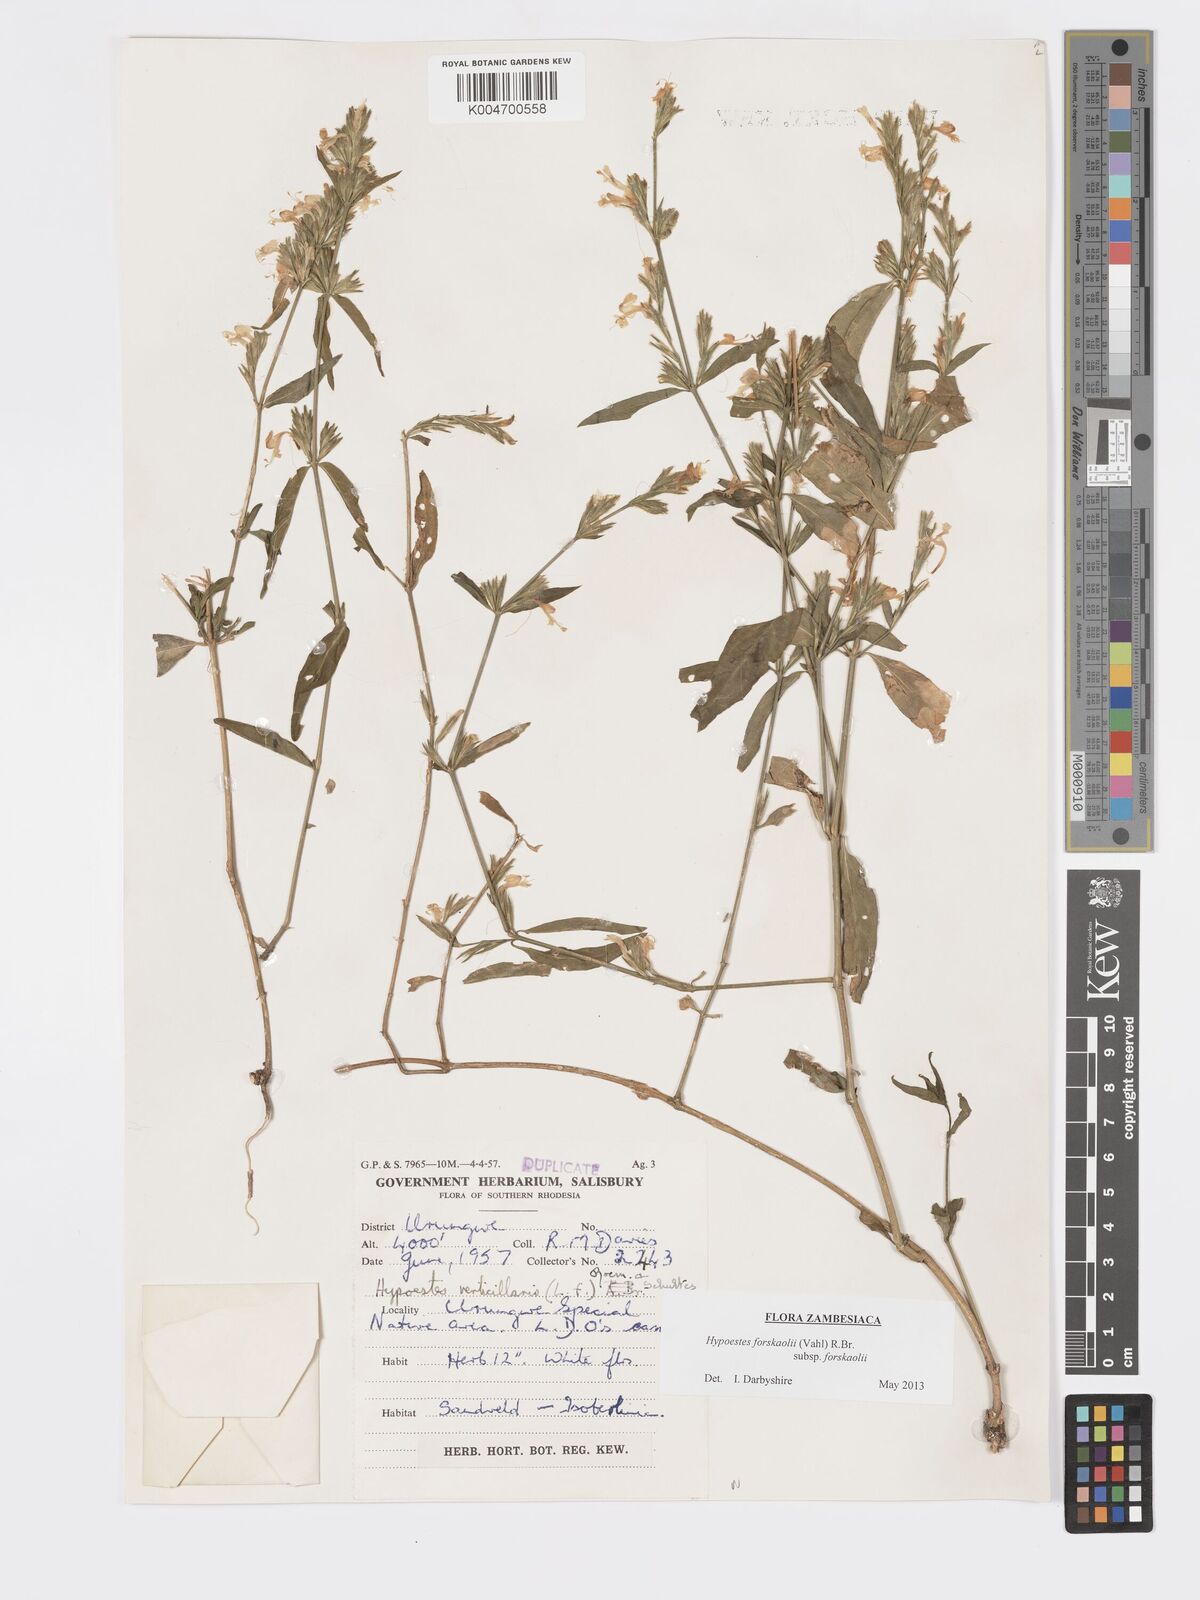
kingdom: Plantae
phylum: Tracheophyta
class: Magnoliopsida
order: Lamiales
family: Acanthaceae
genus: Hypoestes
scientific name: Hypoestes forskaolii
